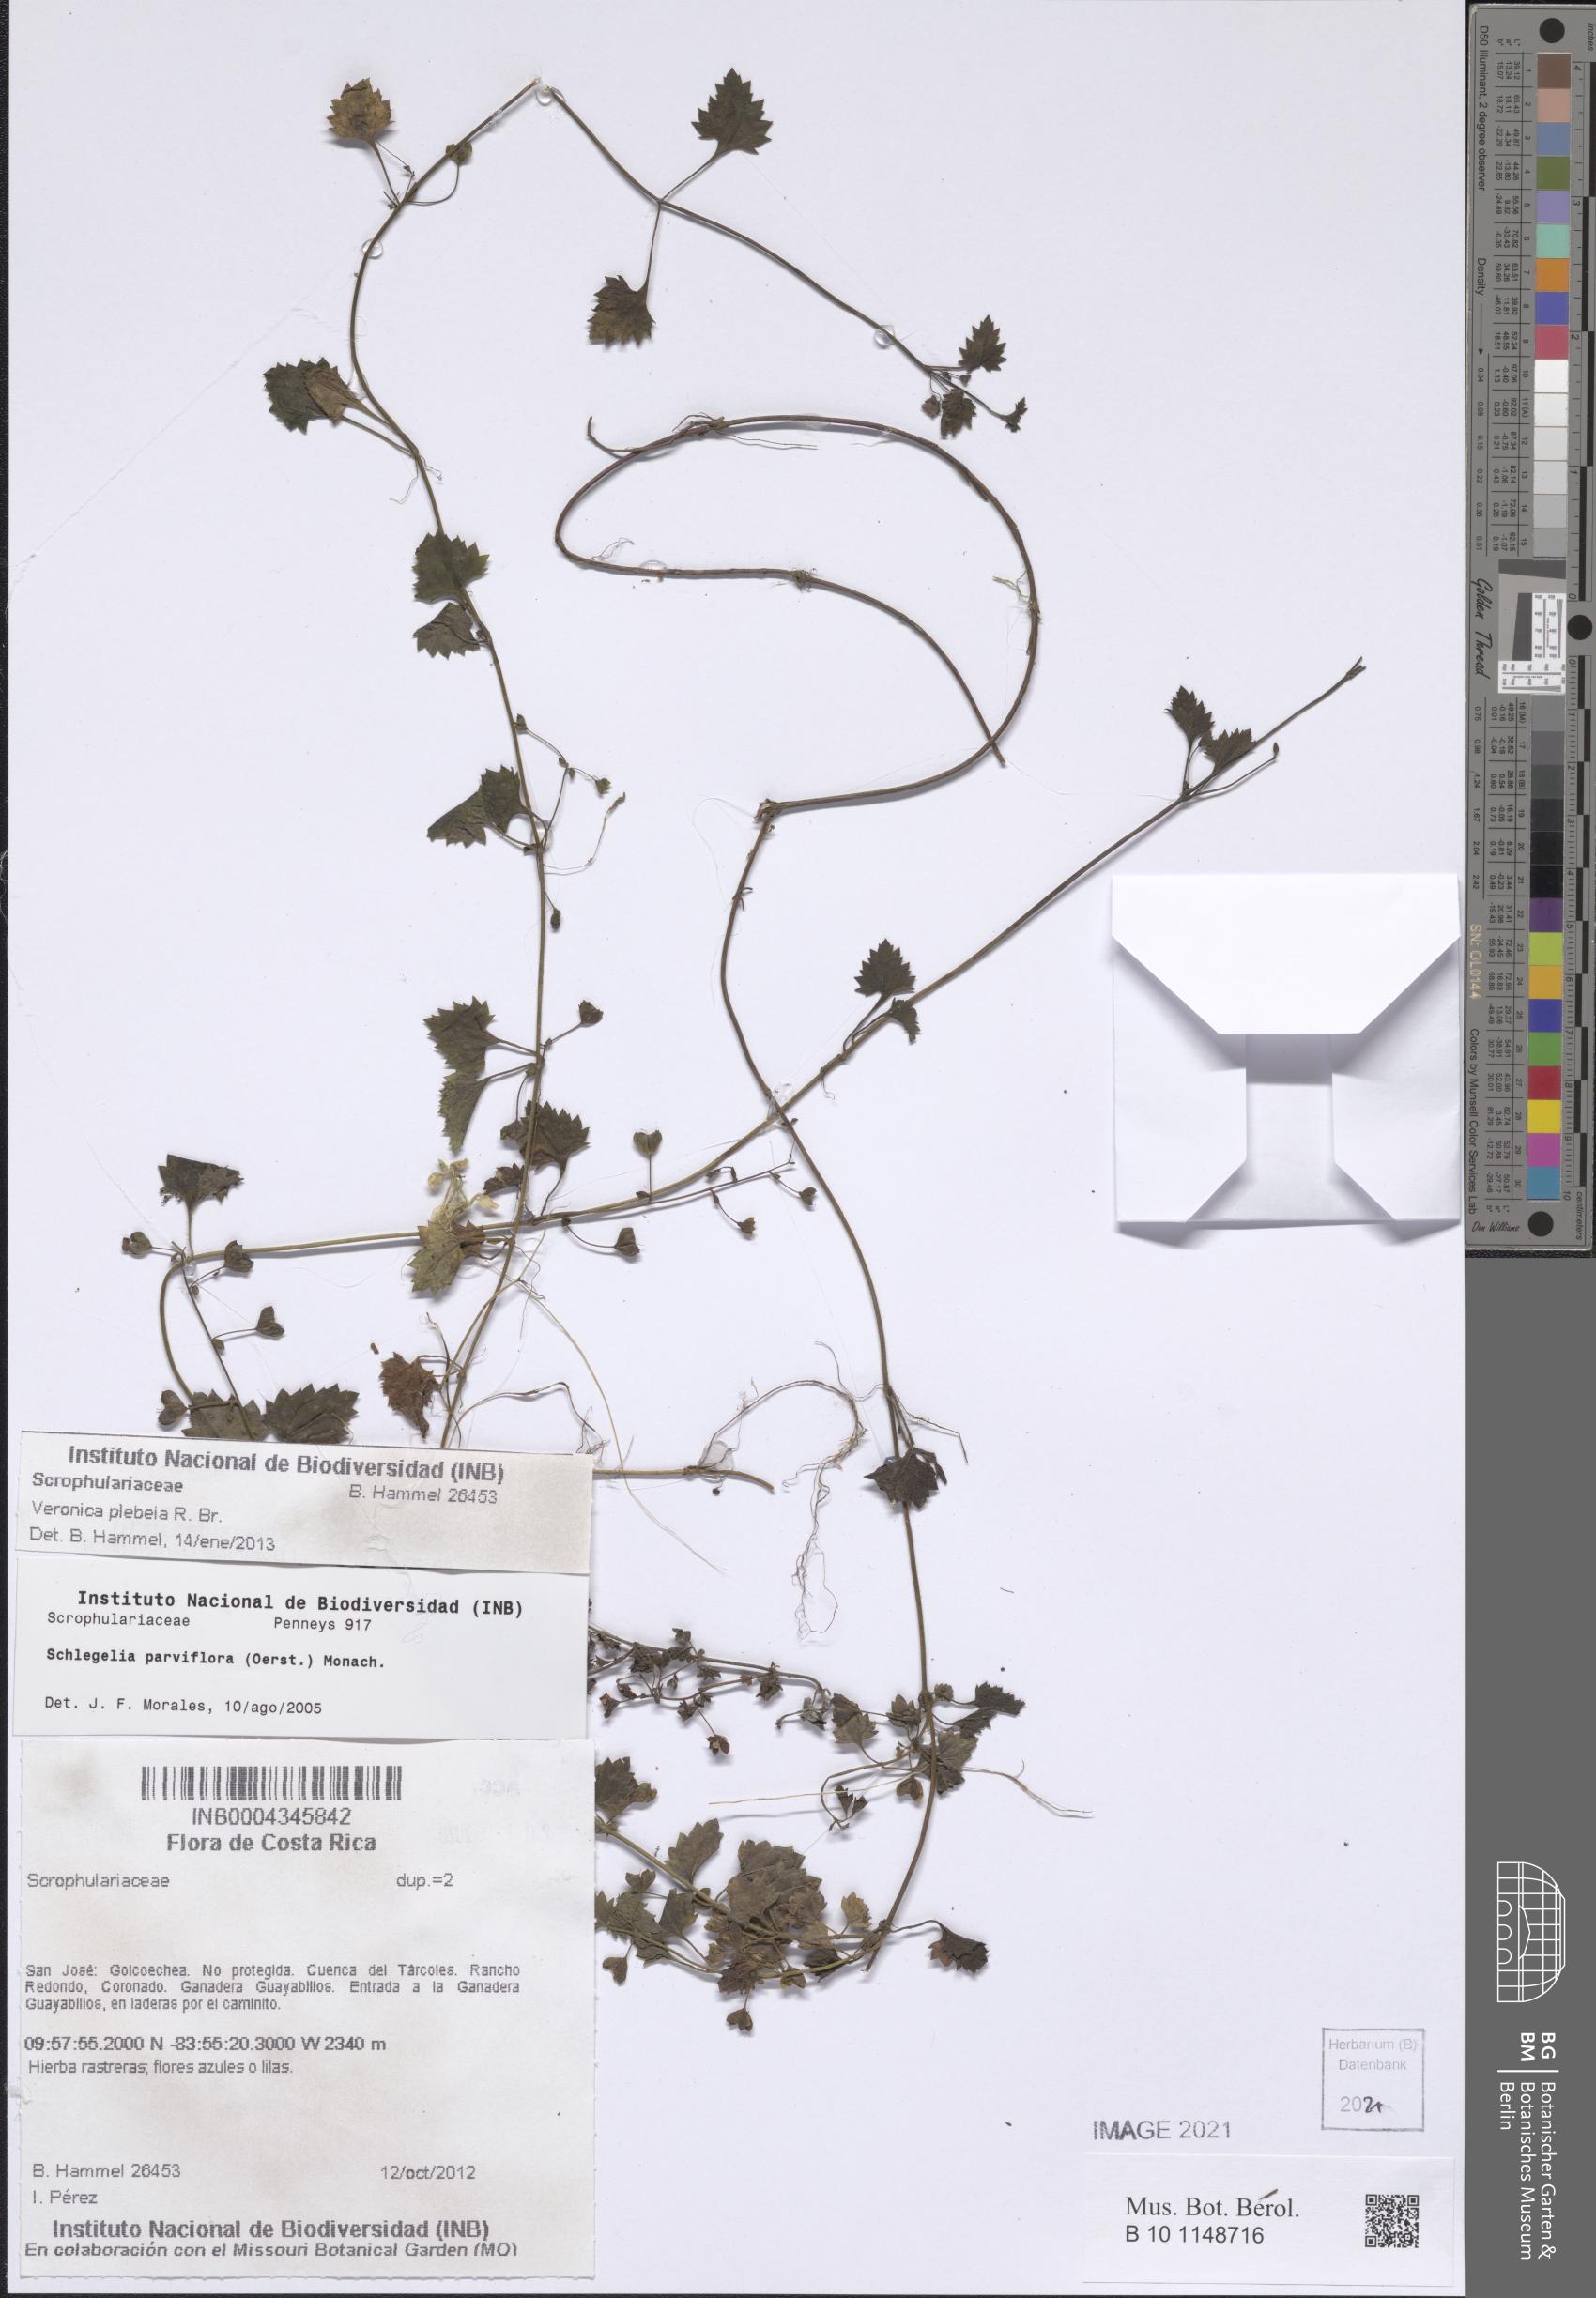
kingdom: Plantae
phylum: Tracheophyta
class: Magnoliopsida
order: Lamiales
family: Plantaginaceae
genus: Veronica
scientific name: Veronica plebeia
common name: Speedwell
